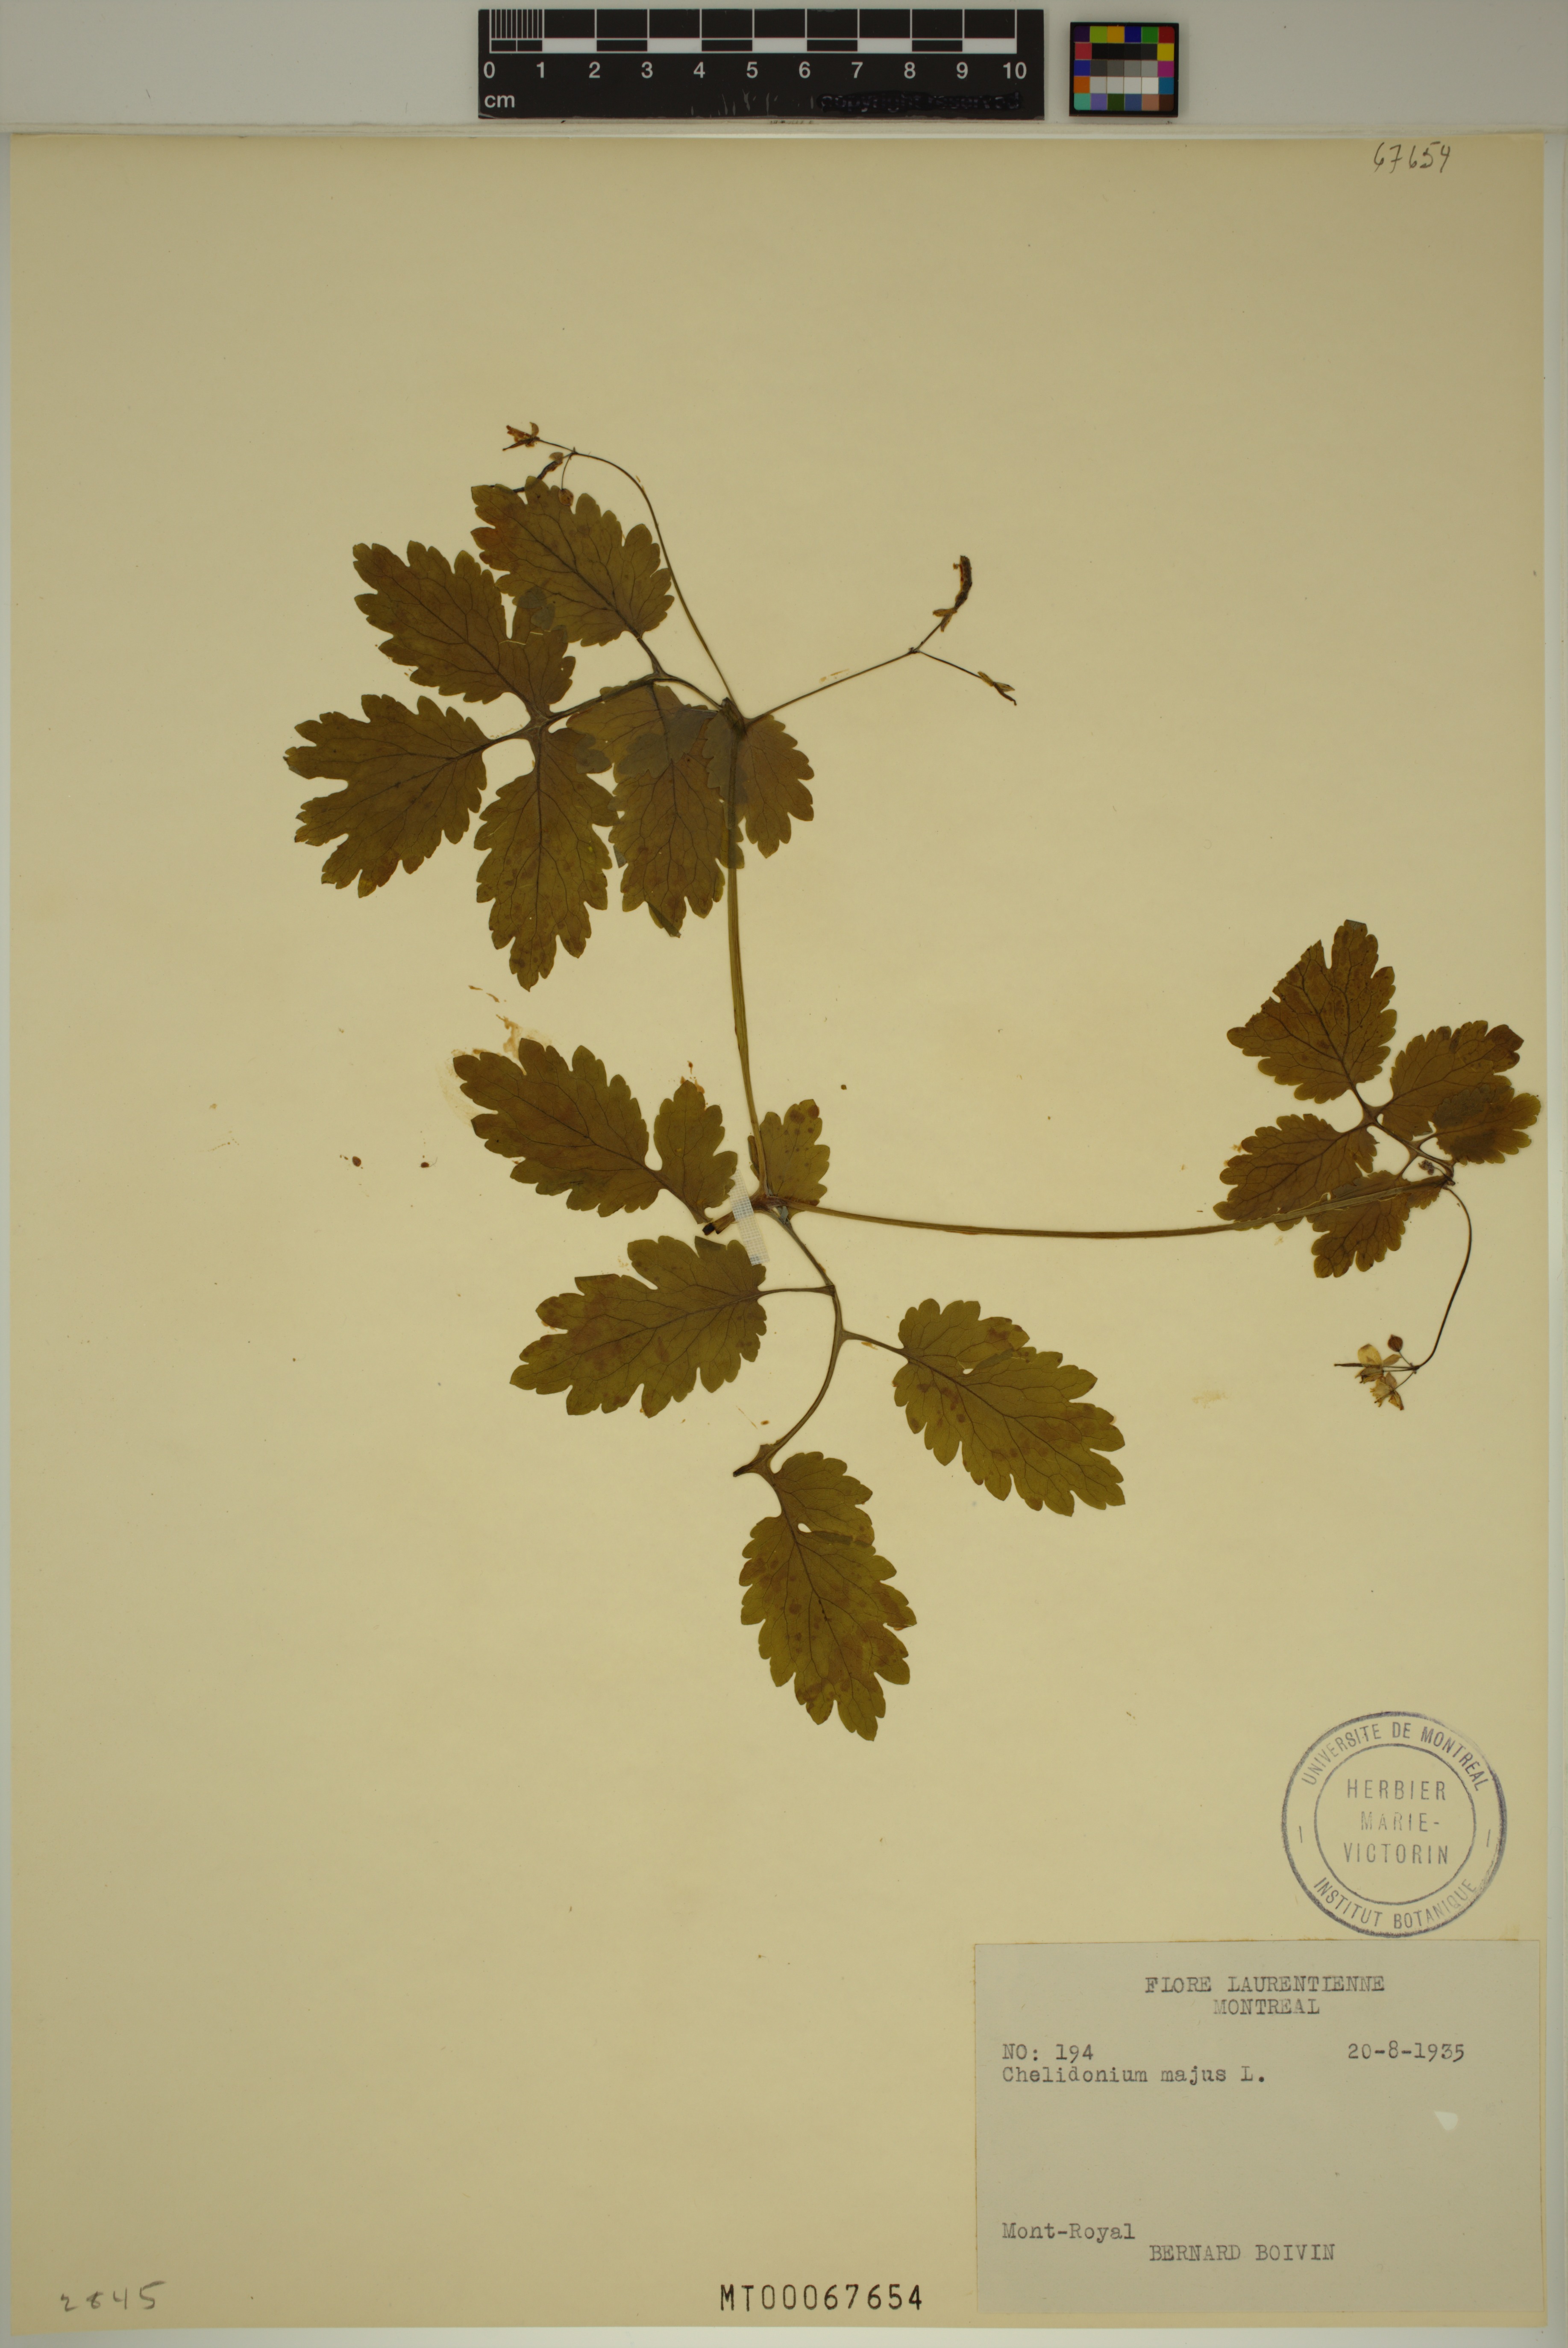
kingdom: Plantae
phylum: Tracheophyta
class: Magnoliopsida
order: Ranunculales
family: Papaveraceae
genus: Chelidonium
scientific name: Chelidonium majus
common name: Greater celandine
